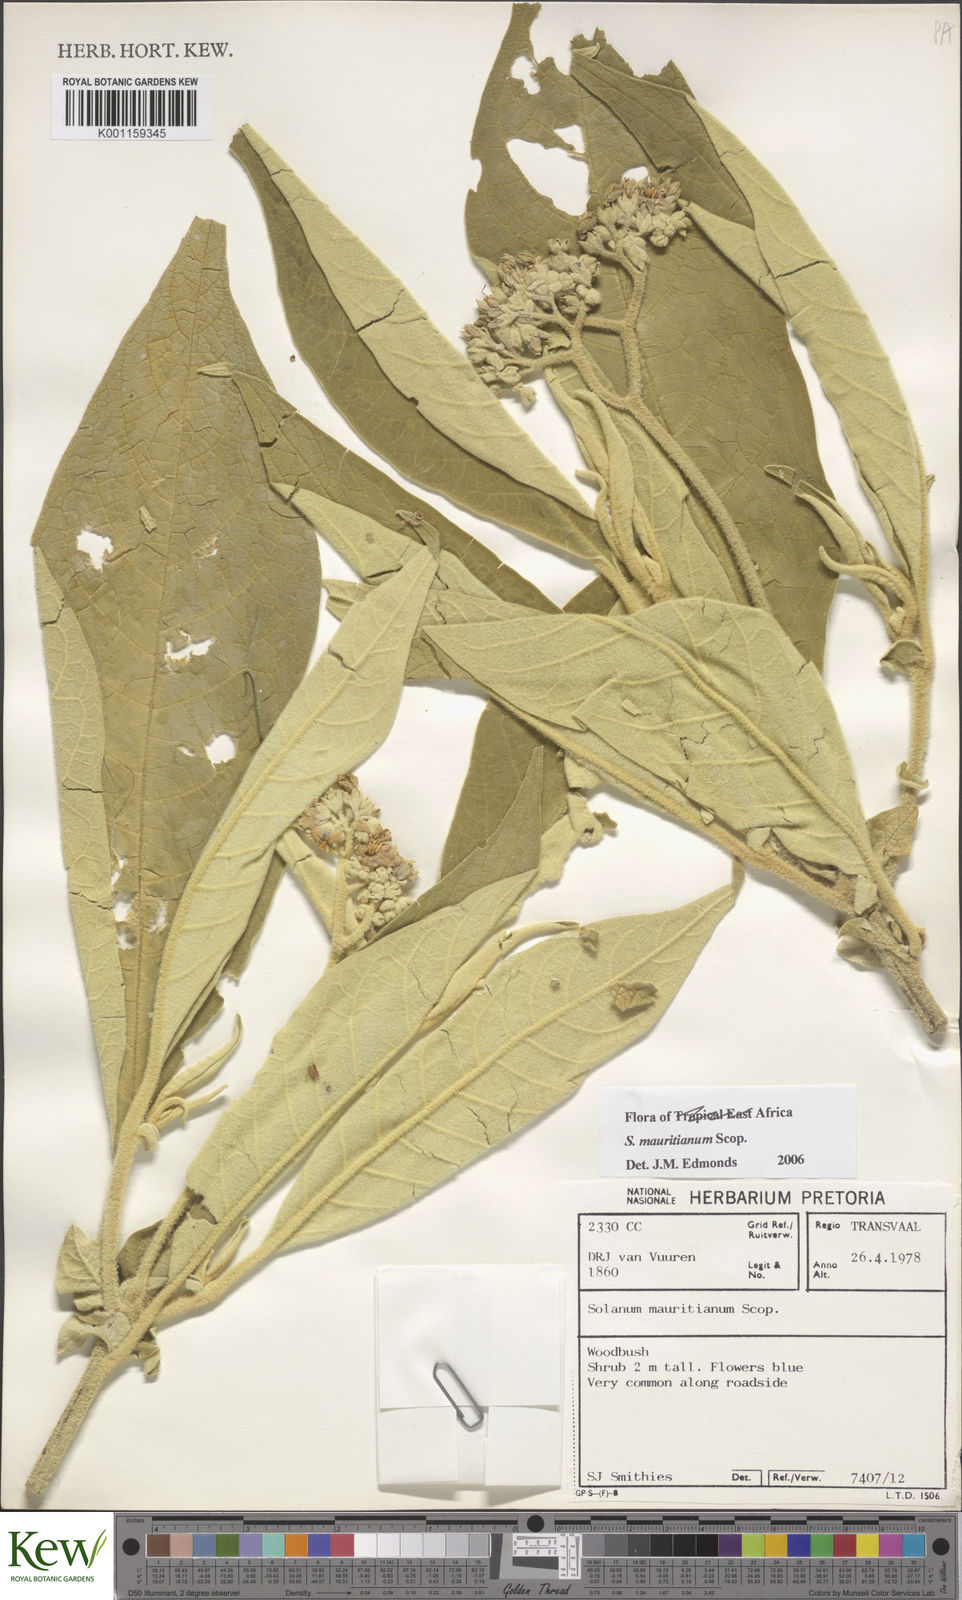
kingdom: Plantae
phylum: Tracheophyta
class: Magnoliopsida
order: Solanales
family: Solanaceae
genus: Solanum
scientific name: Solanum mauritianum
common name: Earleaf nightshade
